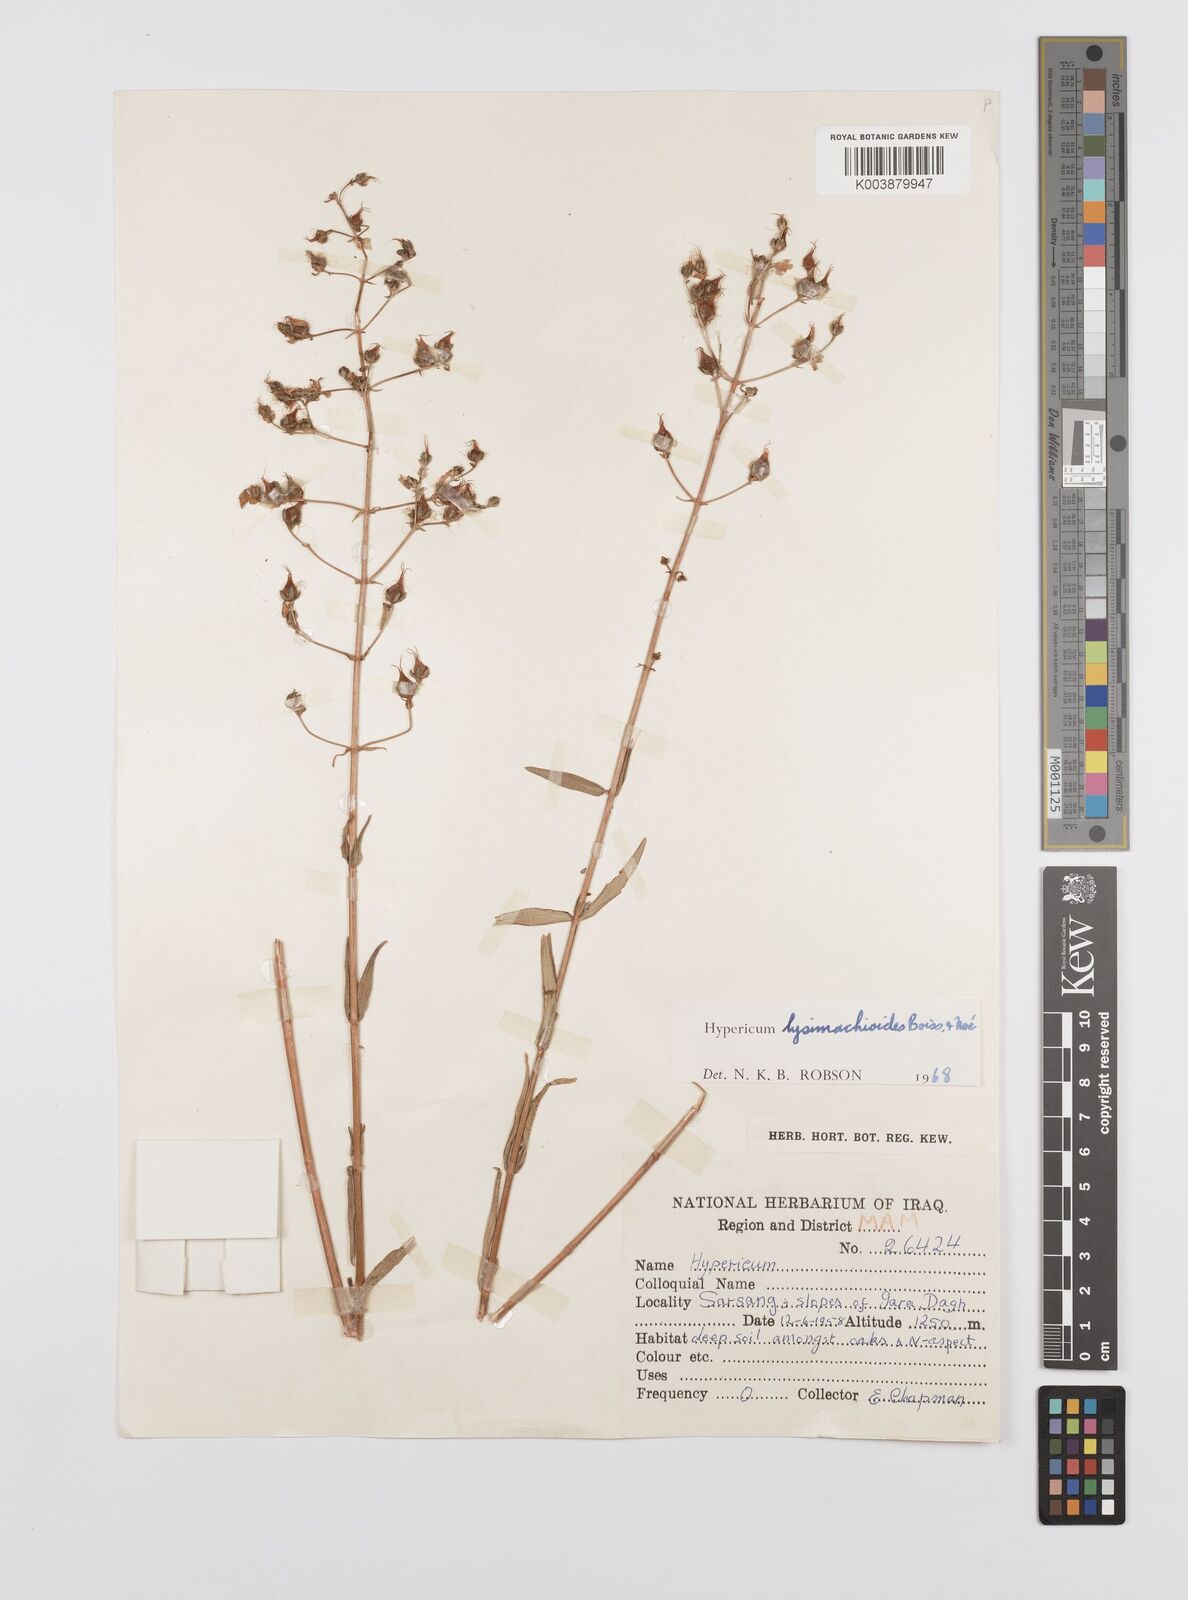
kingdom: Plantae
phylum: Tracheophyta
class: Magnoliopsida
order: Malpighiales
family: Hypericaceae
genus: Hypericum
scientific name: Hypericum lysimachioides
